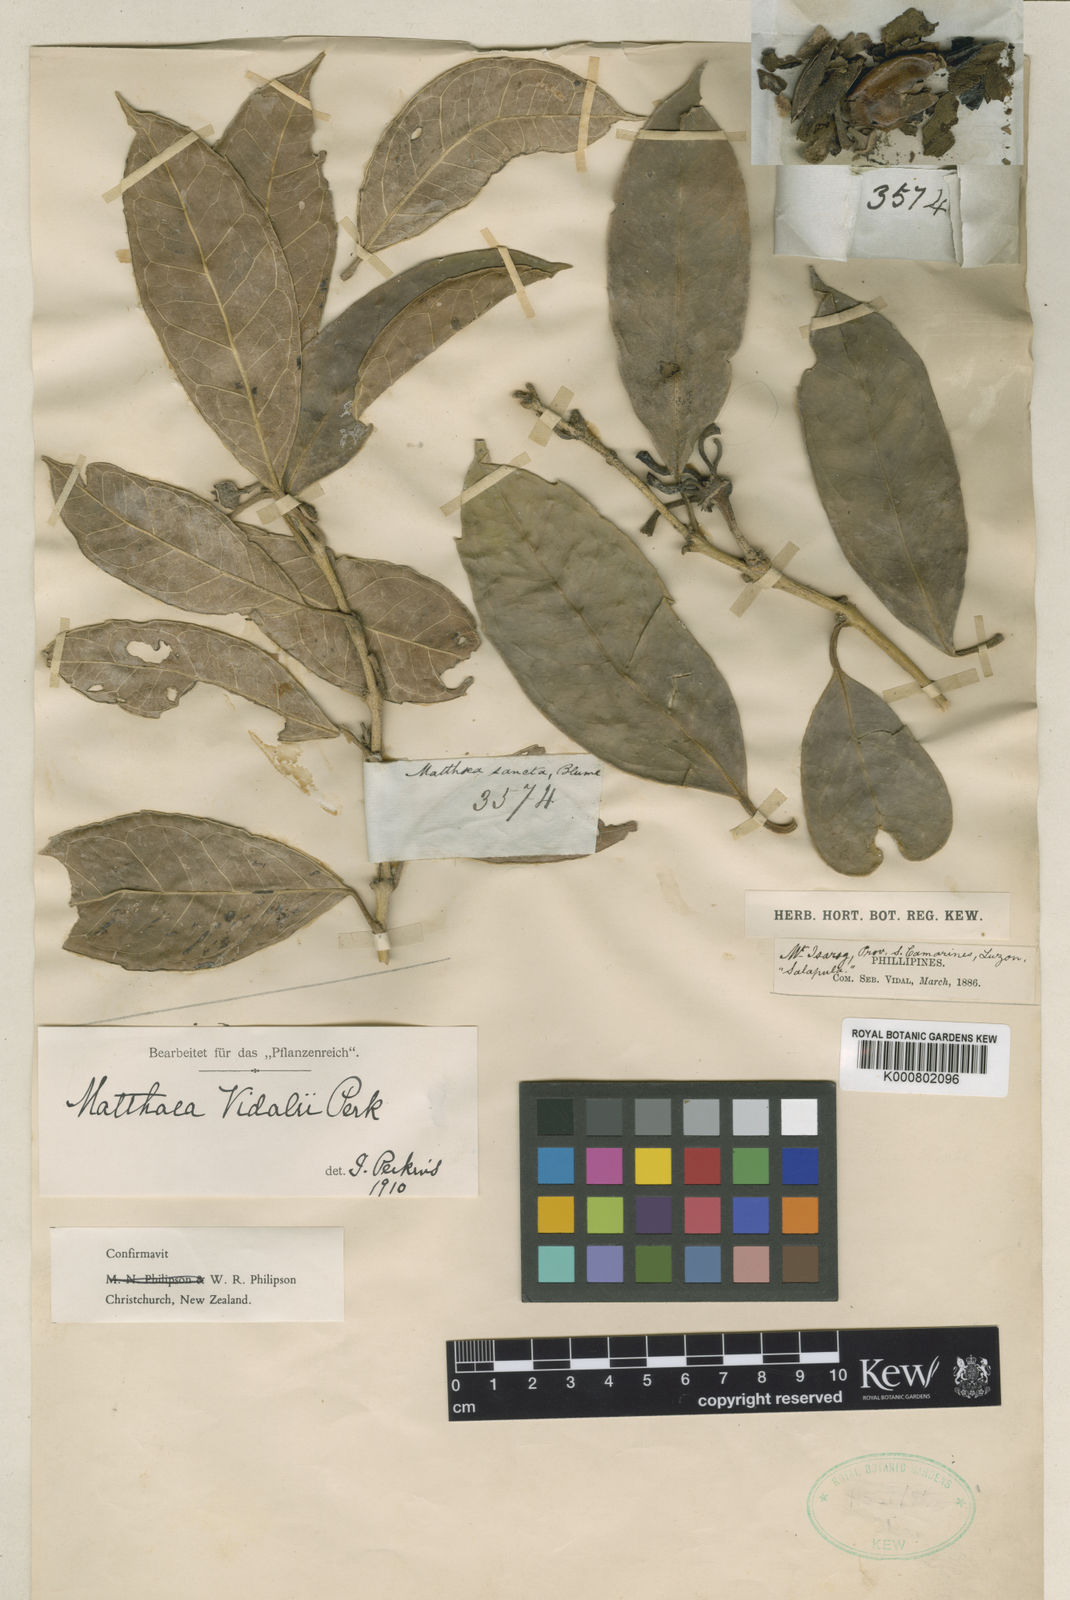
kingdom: Plantae
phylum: Tracheophyta
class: Magnoliopsida
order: Laurales
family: Monimiaceae
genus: Matthaea
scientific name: Matthaea vidalii
